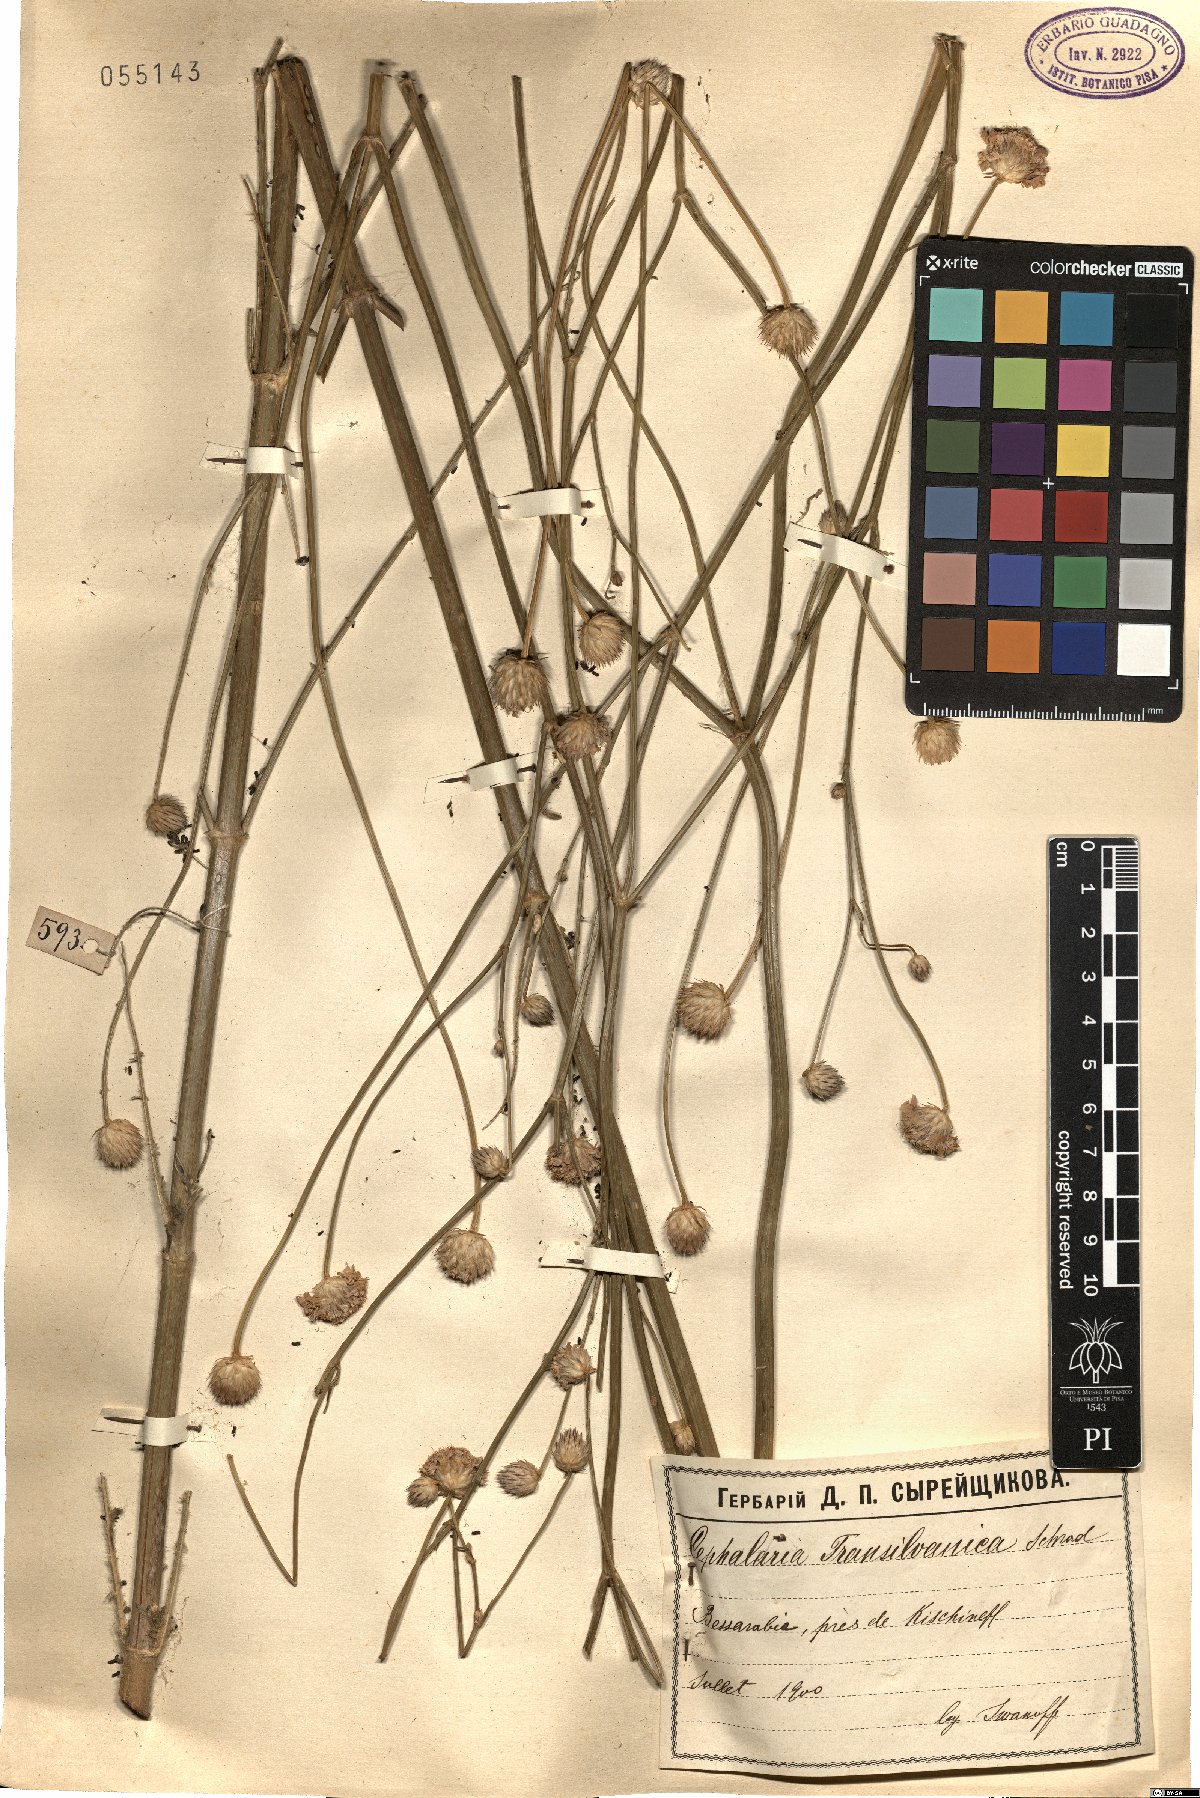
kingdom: Plantae
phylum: Tracheophyta
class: Magnoliopsida
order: Dipsacales
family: Caprifoliaceae
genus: Cephalaria
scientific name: Cephalaria transsylvanica
